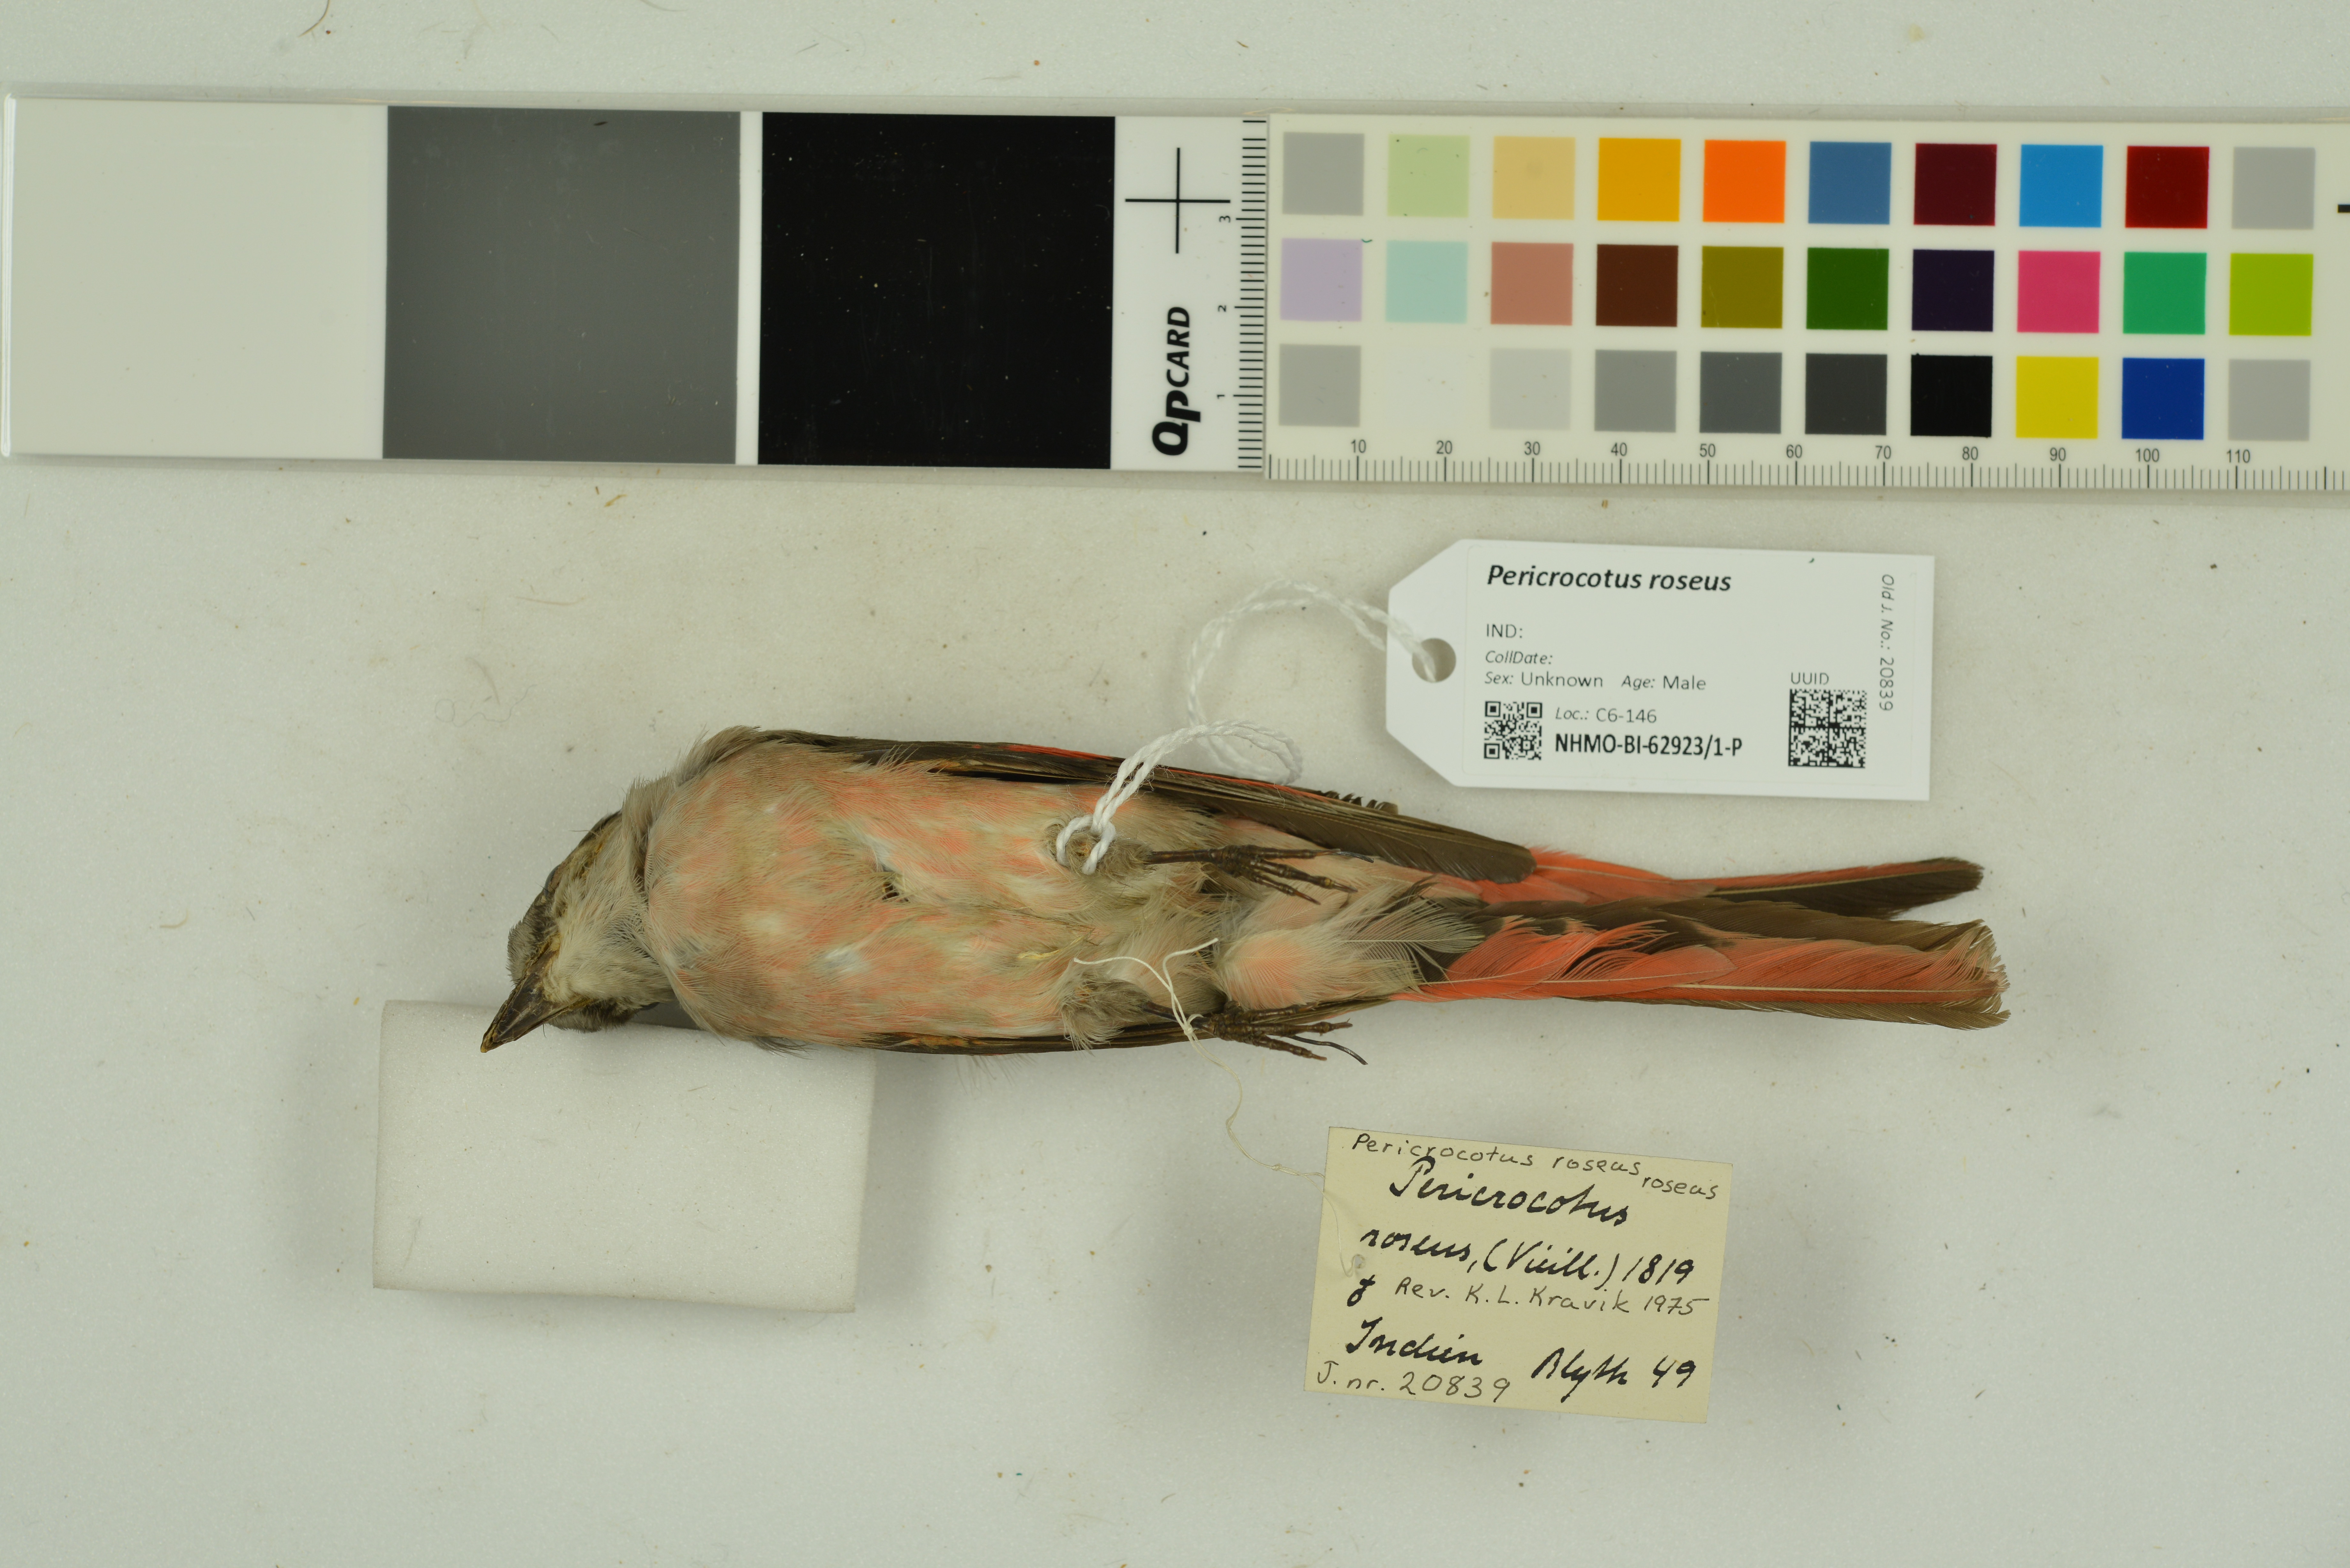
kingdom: Animalia
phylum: Chordata
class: Aves
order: Passeriformes
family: Campephagidae
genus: Pericrocotus
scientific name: Pericrocotus roseus
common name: Rosy minivet
